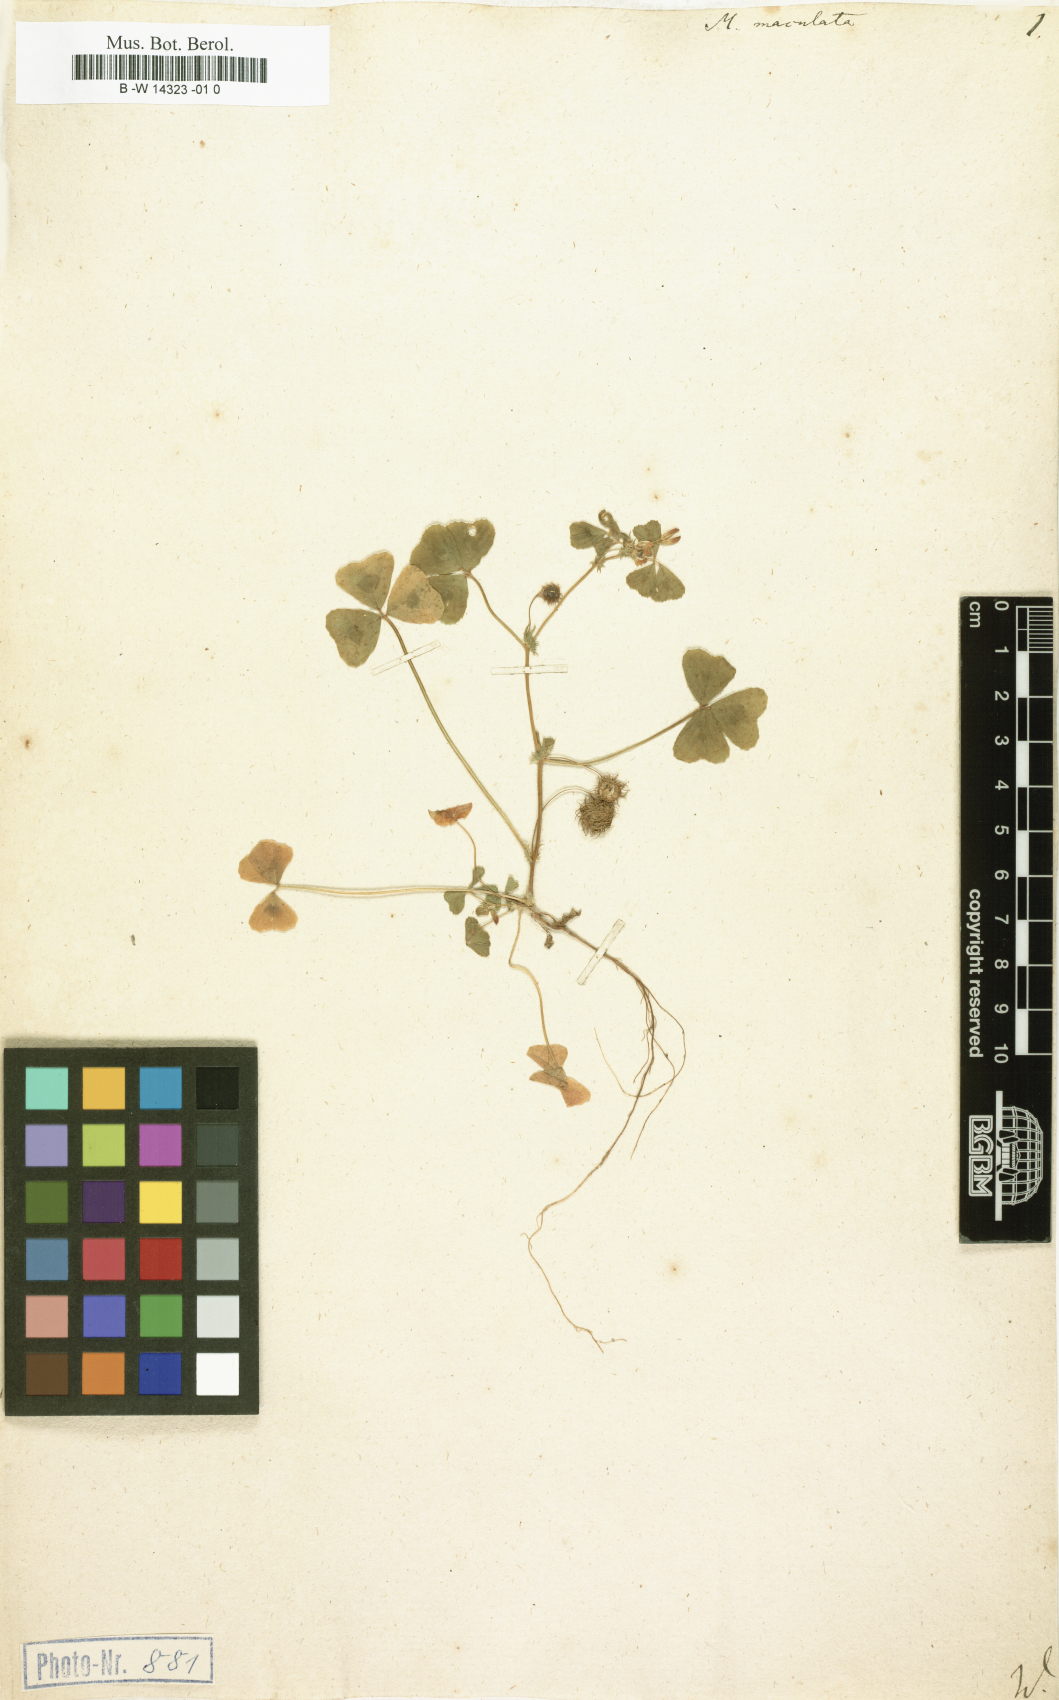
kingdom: Plantae
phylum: Tracheophyta
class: Magnoliopsida
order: Fabales
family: Fabaceae
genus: Medicago
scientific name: Medicago arabica
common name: Spotted medick
